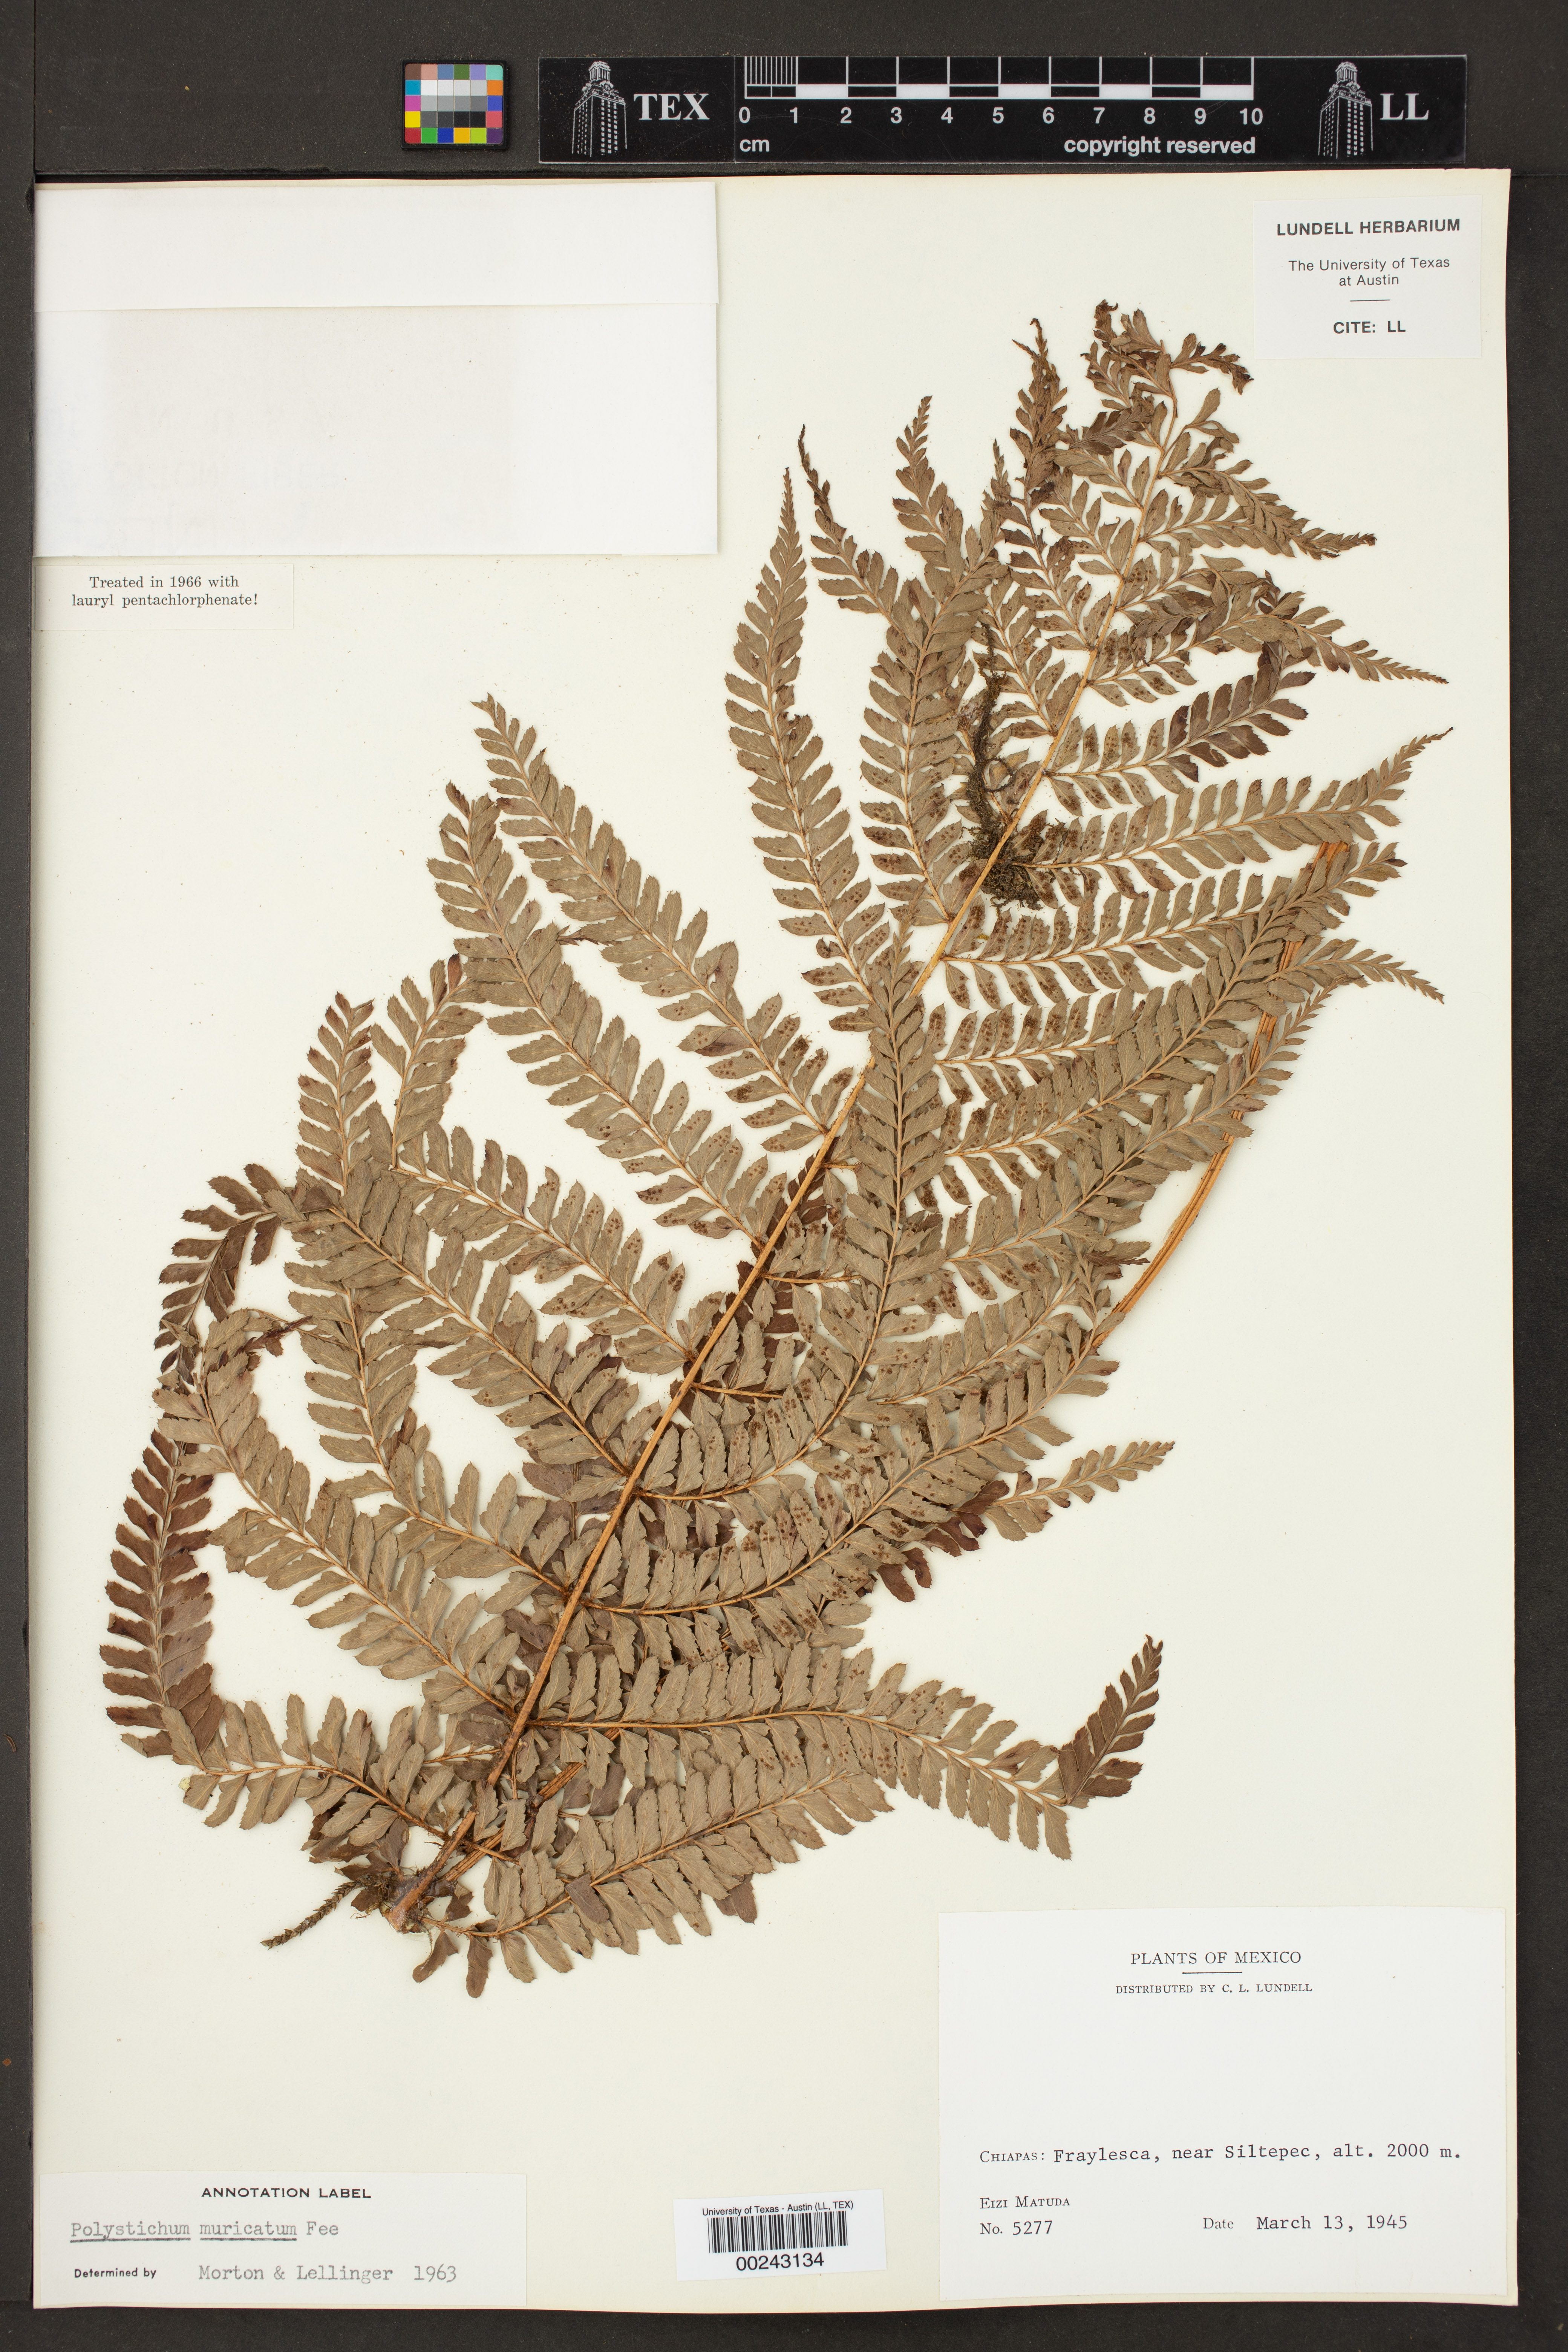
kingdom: Plantae
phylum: Tracheophyta
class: Polypodiopsida
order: Polypodiales
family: Dryopteridaceae
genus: Polystichum
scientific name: Polystichum muricatum
